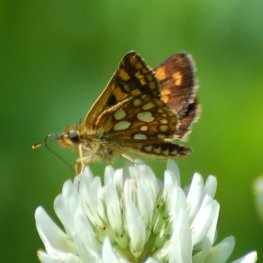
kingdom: Animalia
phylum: Arthropoda
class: Insecta
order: Lepidoptera
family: Hesperiidae
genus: Carterocephalus
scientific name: Carterocephalus palaemon
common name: Chequered Skipper
